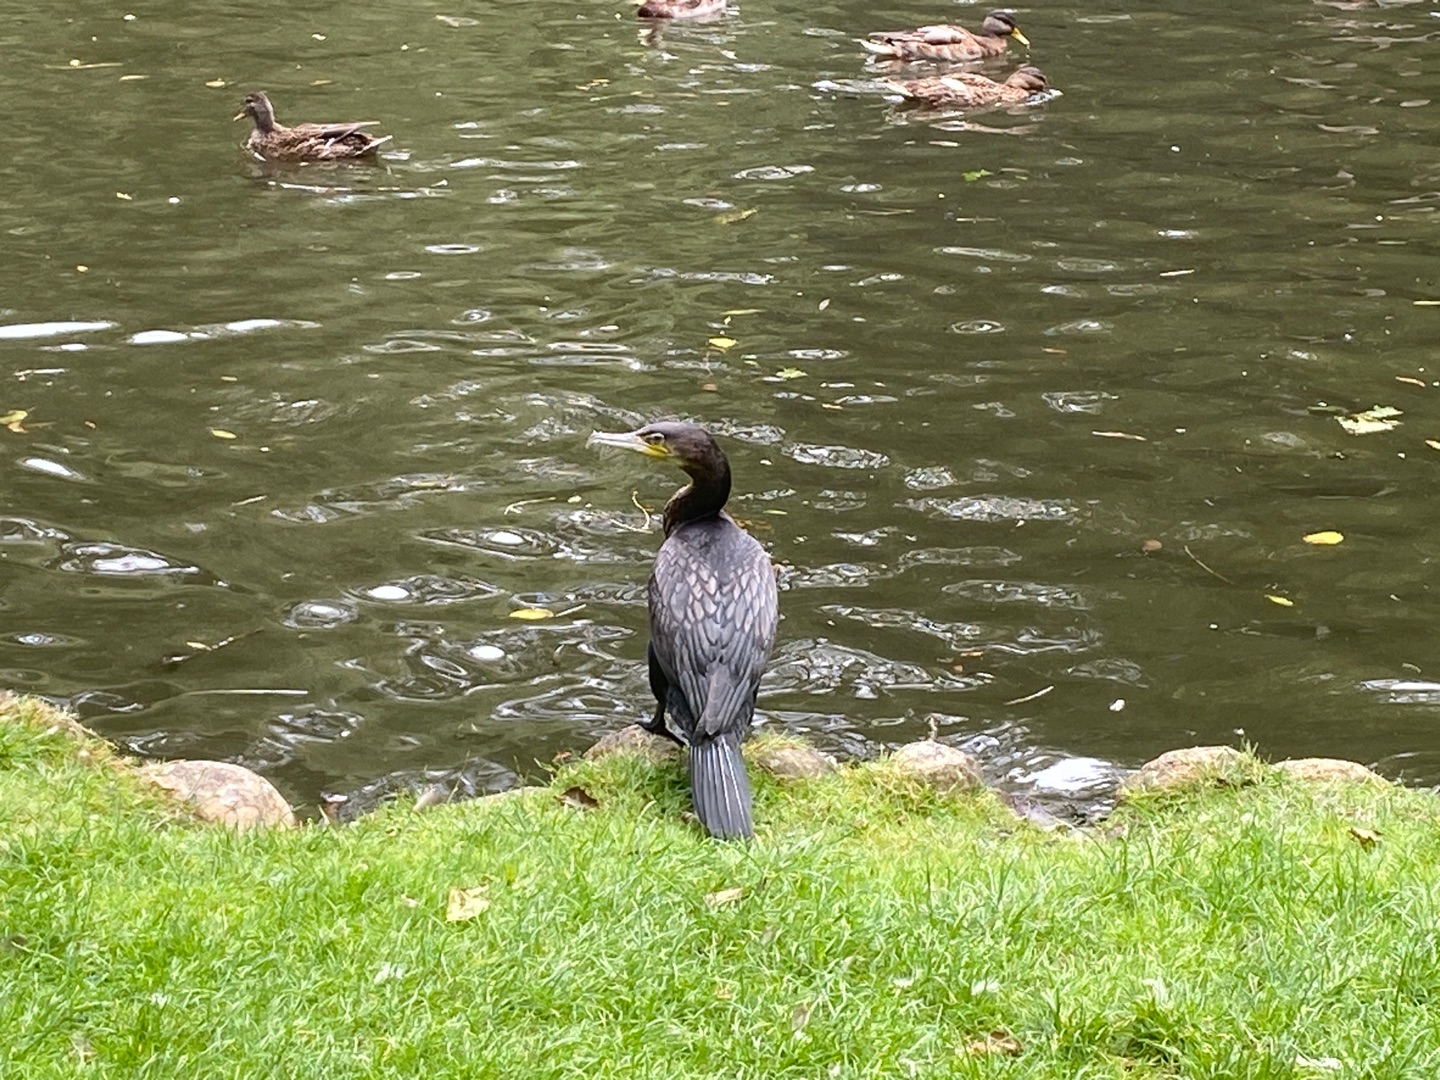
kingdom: Animalia
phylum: Chordata
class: Aves
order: Suliformes
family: Phalacrocoracidae
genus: Phalacrocorax
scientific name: Phalacrocorax carbo
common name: Skarv
